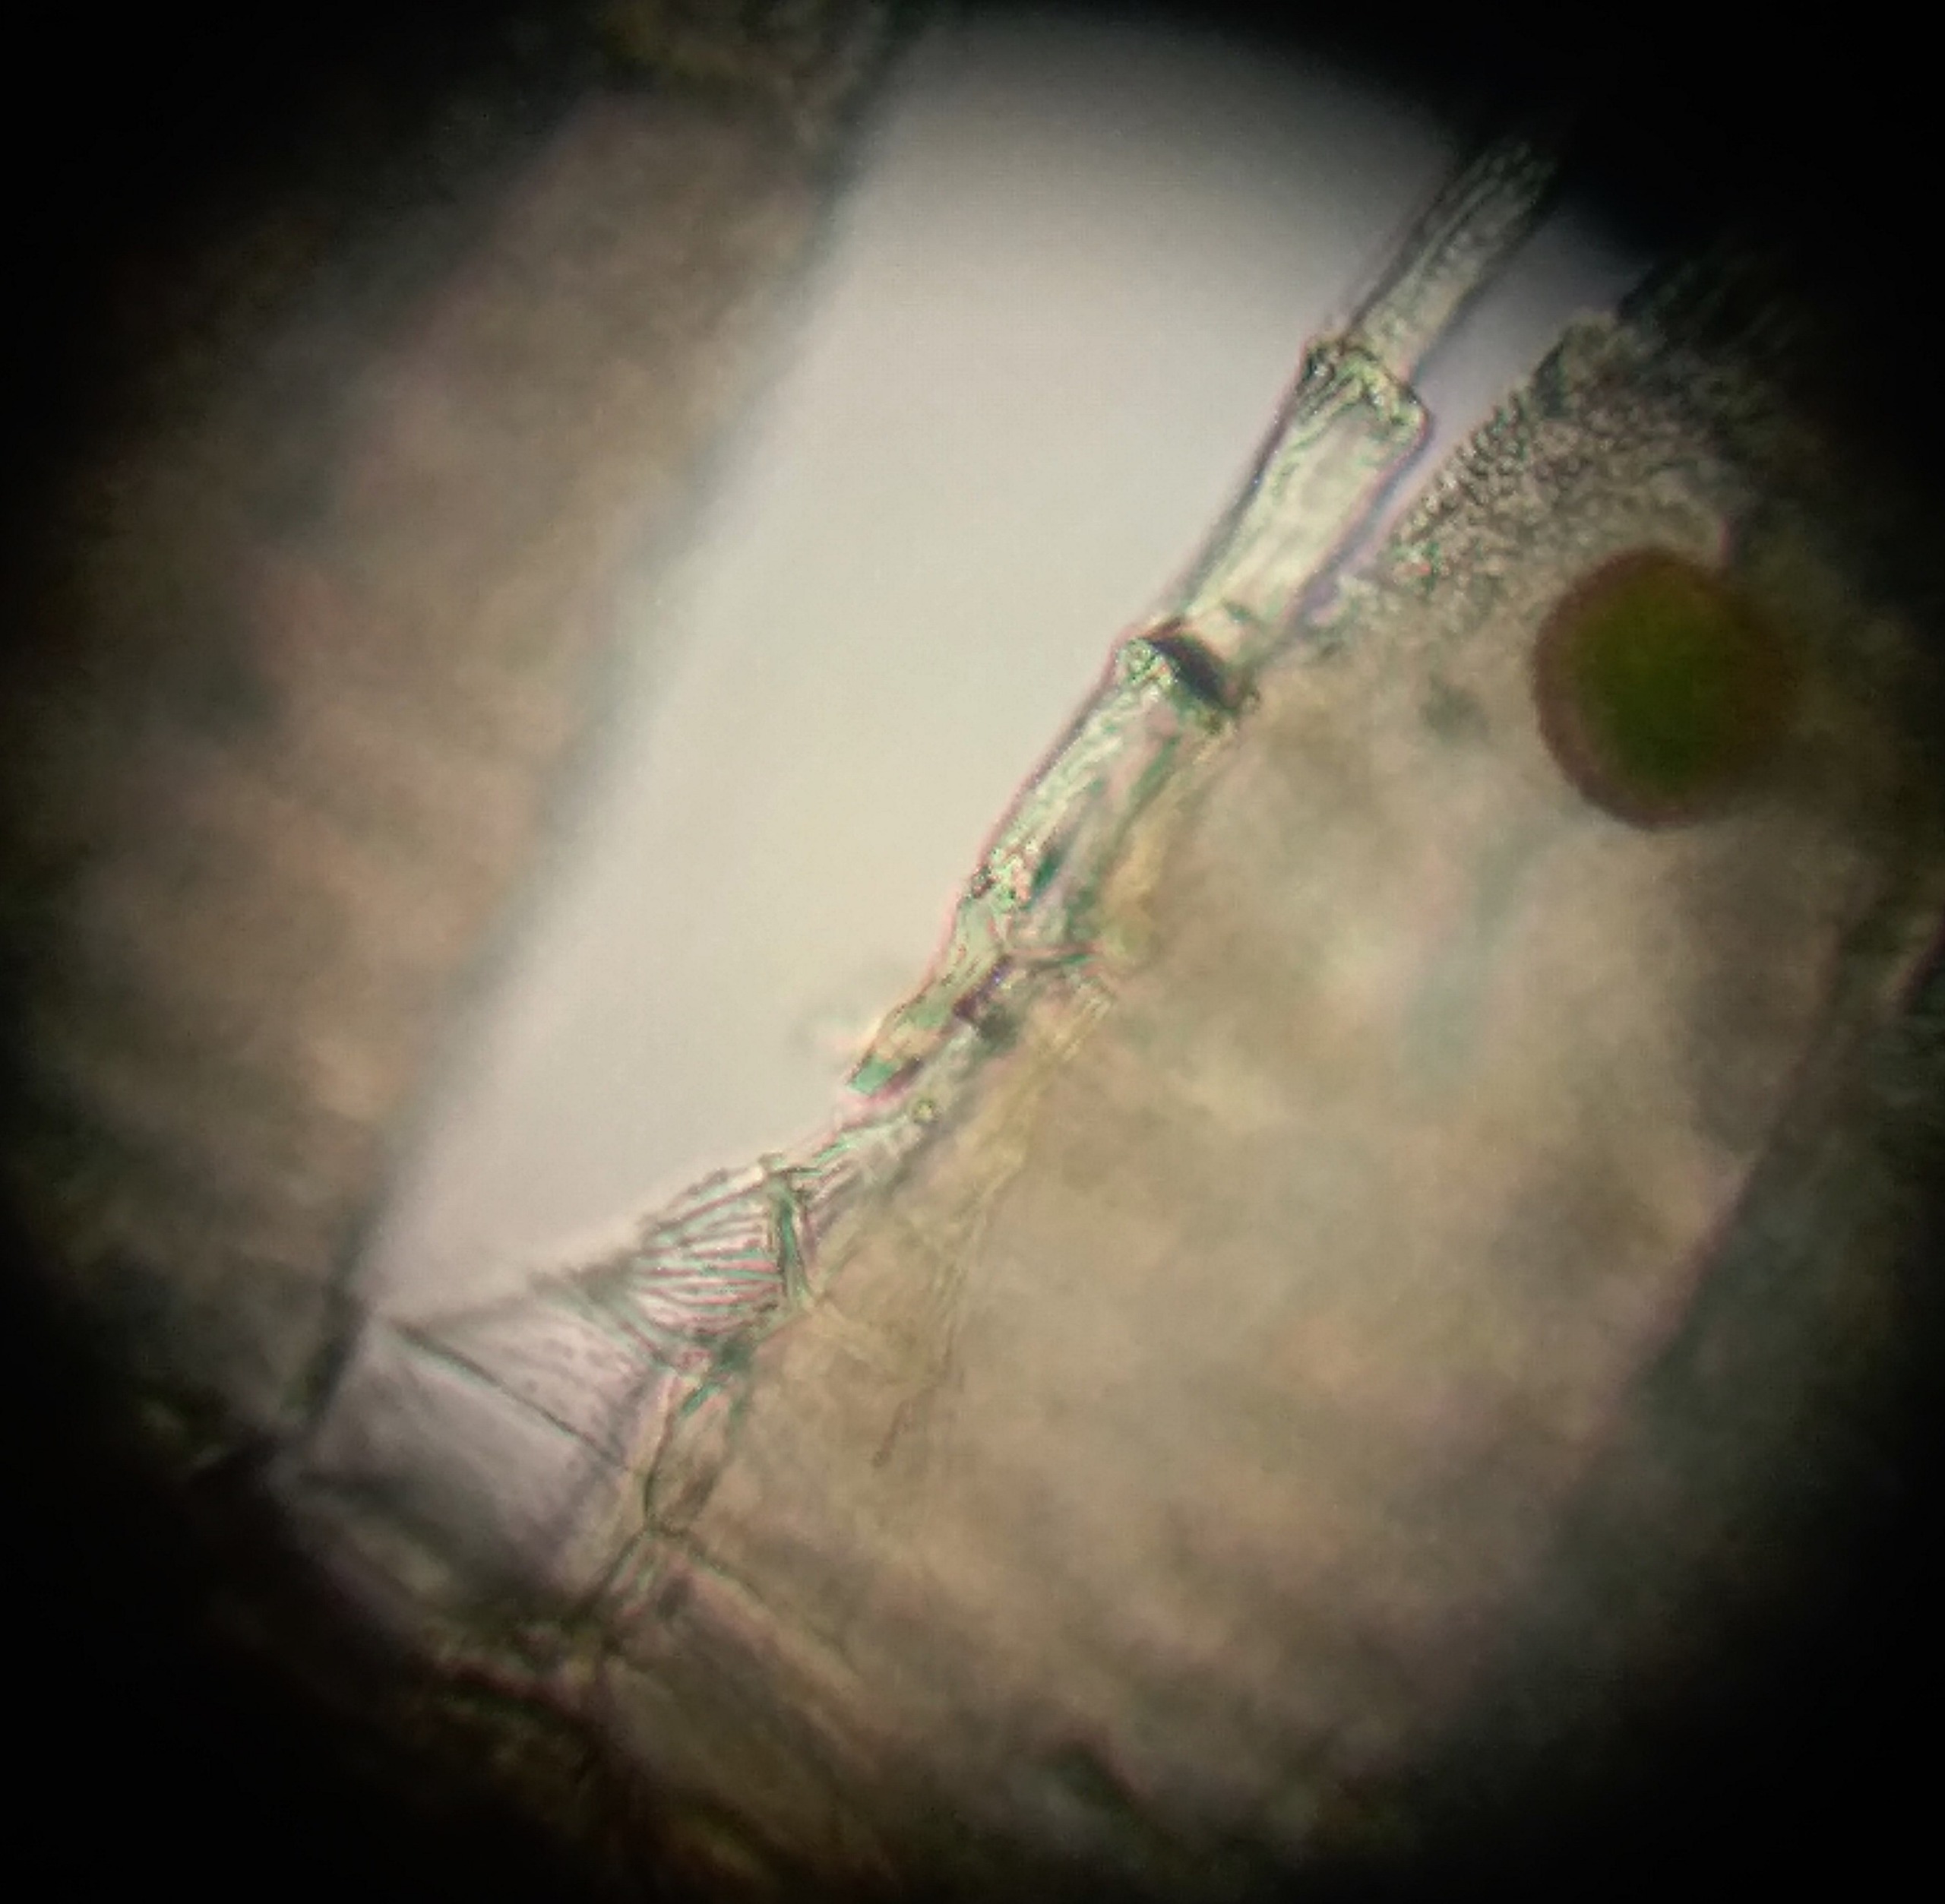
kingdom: Plantae
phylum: Bryophyta
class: Bryopsida
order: Orthotrichales
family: Orthotrichaceae
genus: Ulota
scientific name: Ulota bruchii
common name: Bruchs låddenhætte
